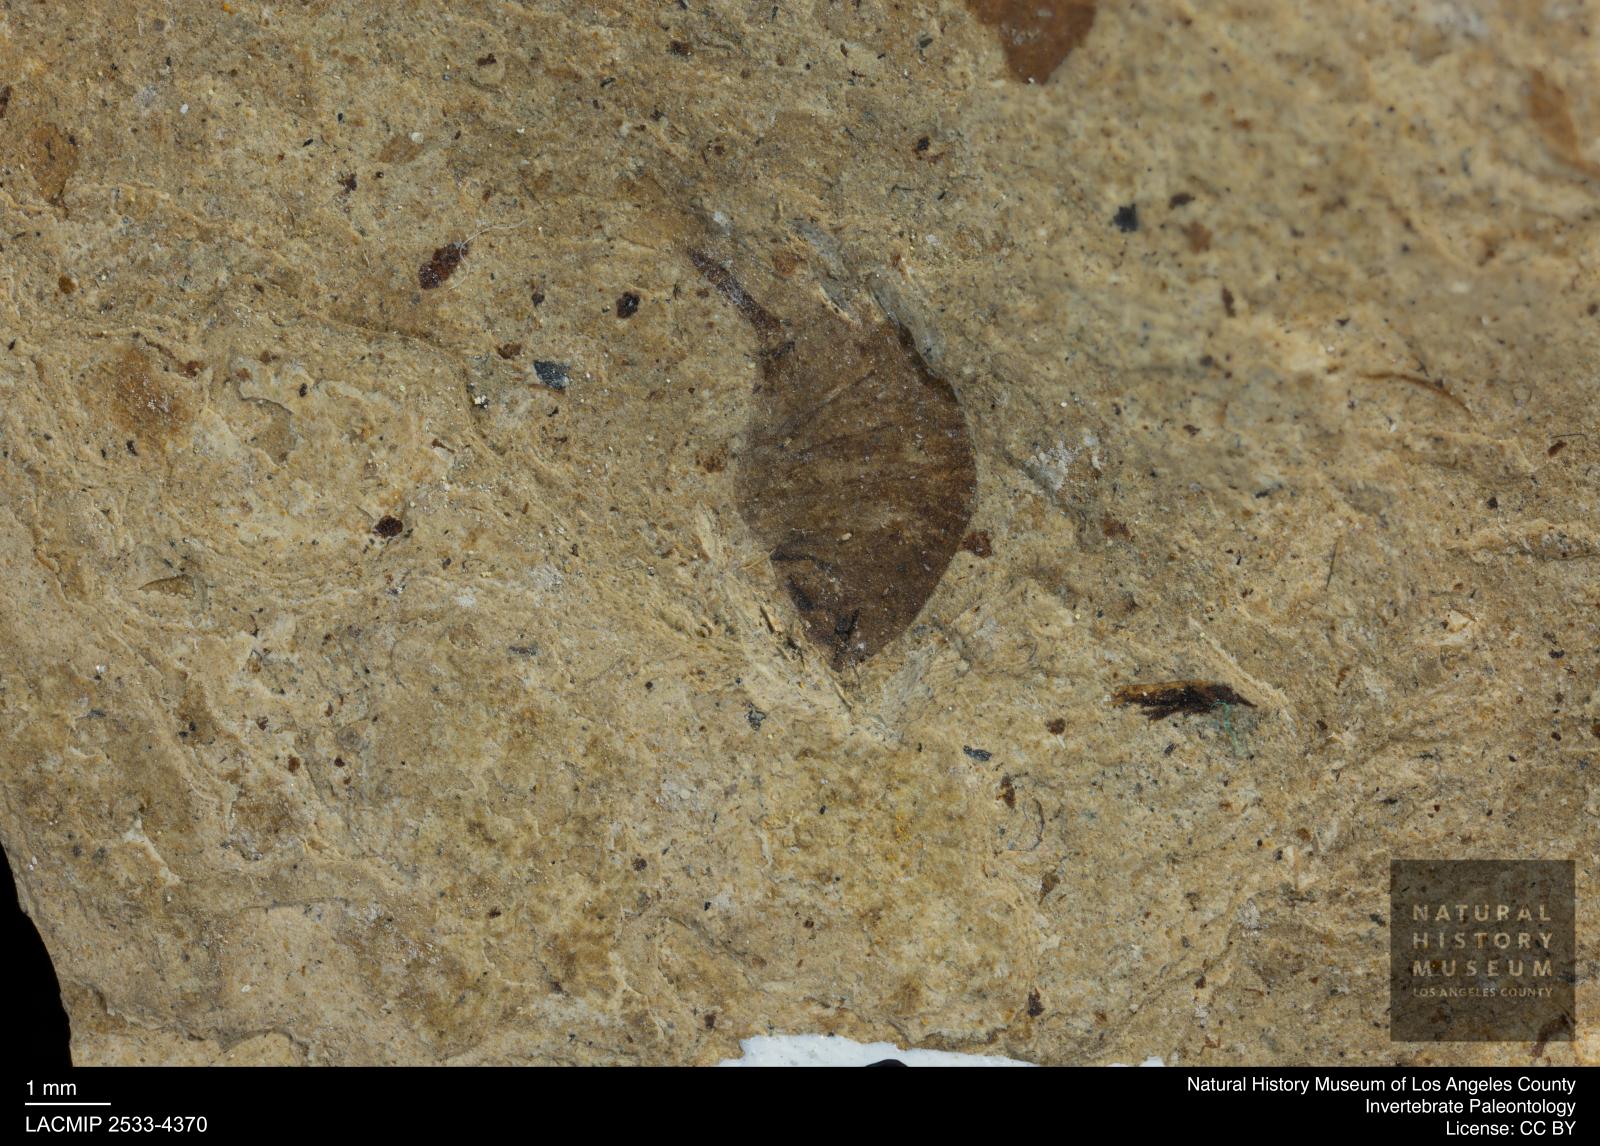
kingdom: Animalia
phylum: Arthropoda
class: Insecta
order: Diptera
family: Syrphidae
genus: Eristalis
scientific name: Eristalis
